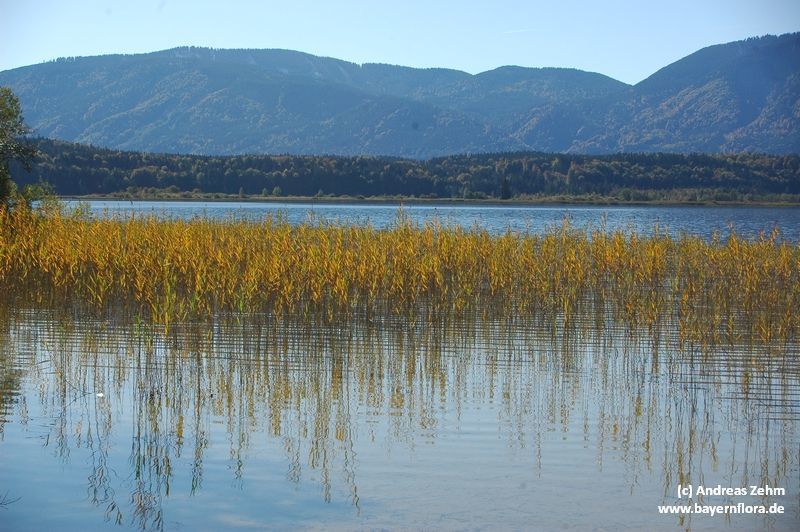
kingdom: Plantae
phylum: Tracheophyta
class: Liliopsida
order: Poales
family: Poaceae
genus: Phragmites
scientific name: Phragmites australis
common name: Common reed
